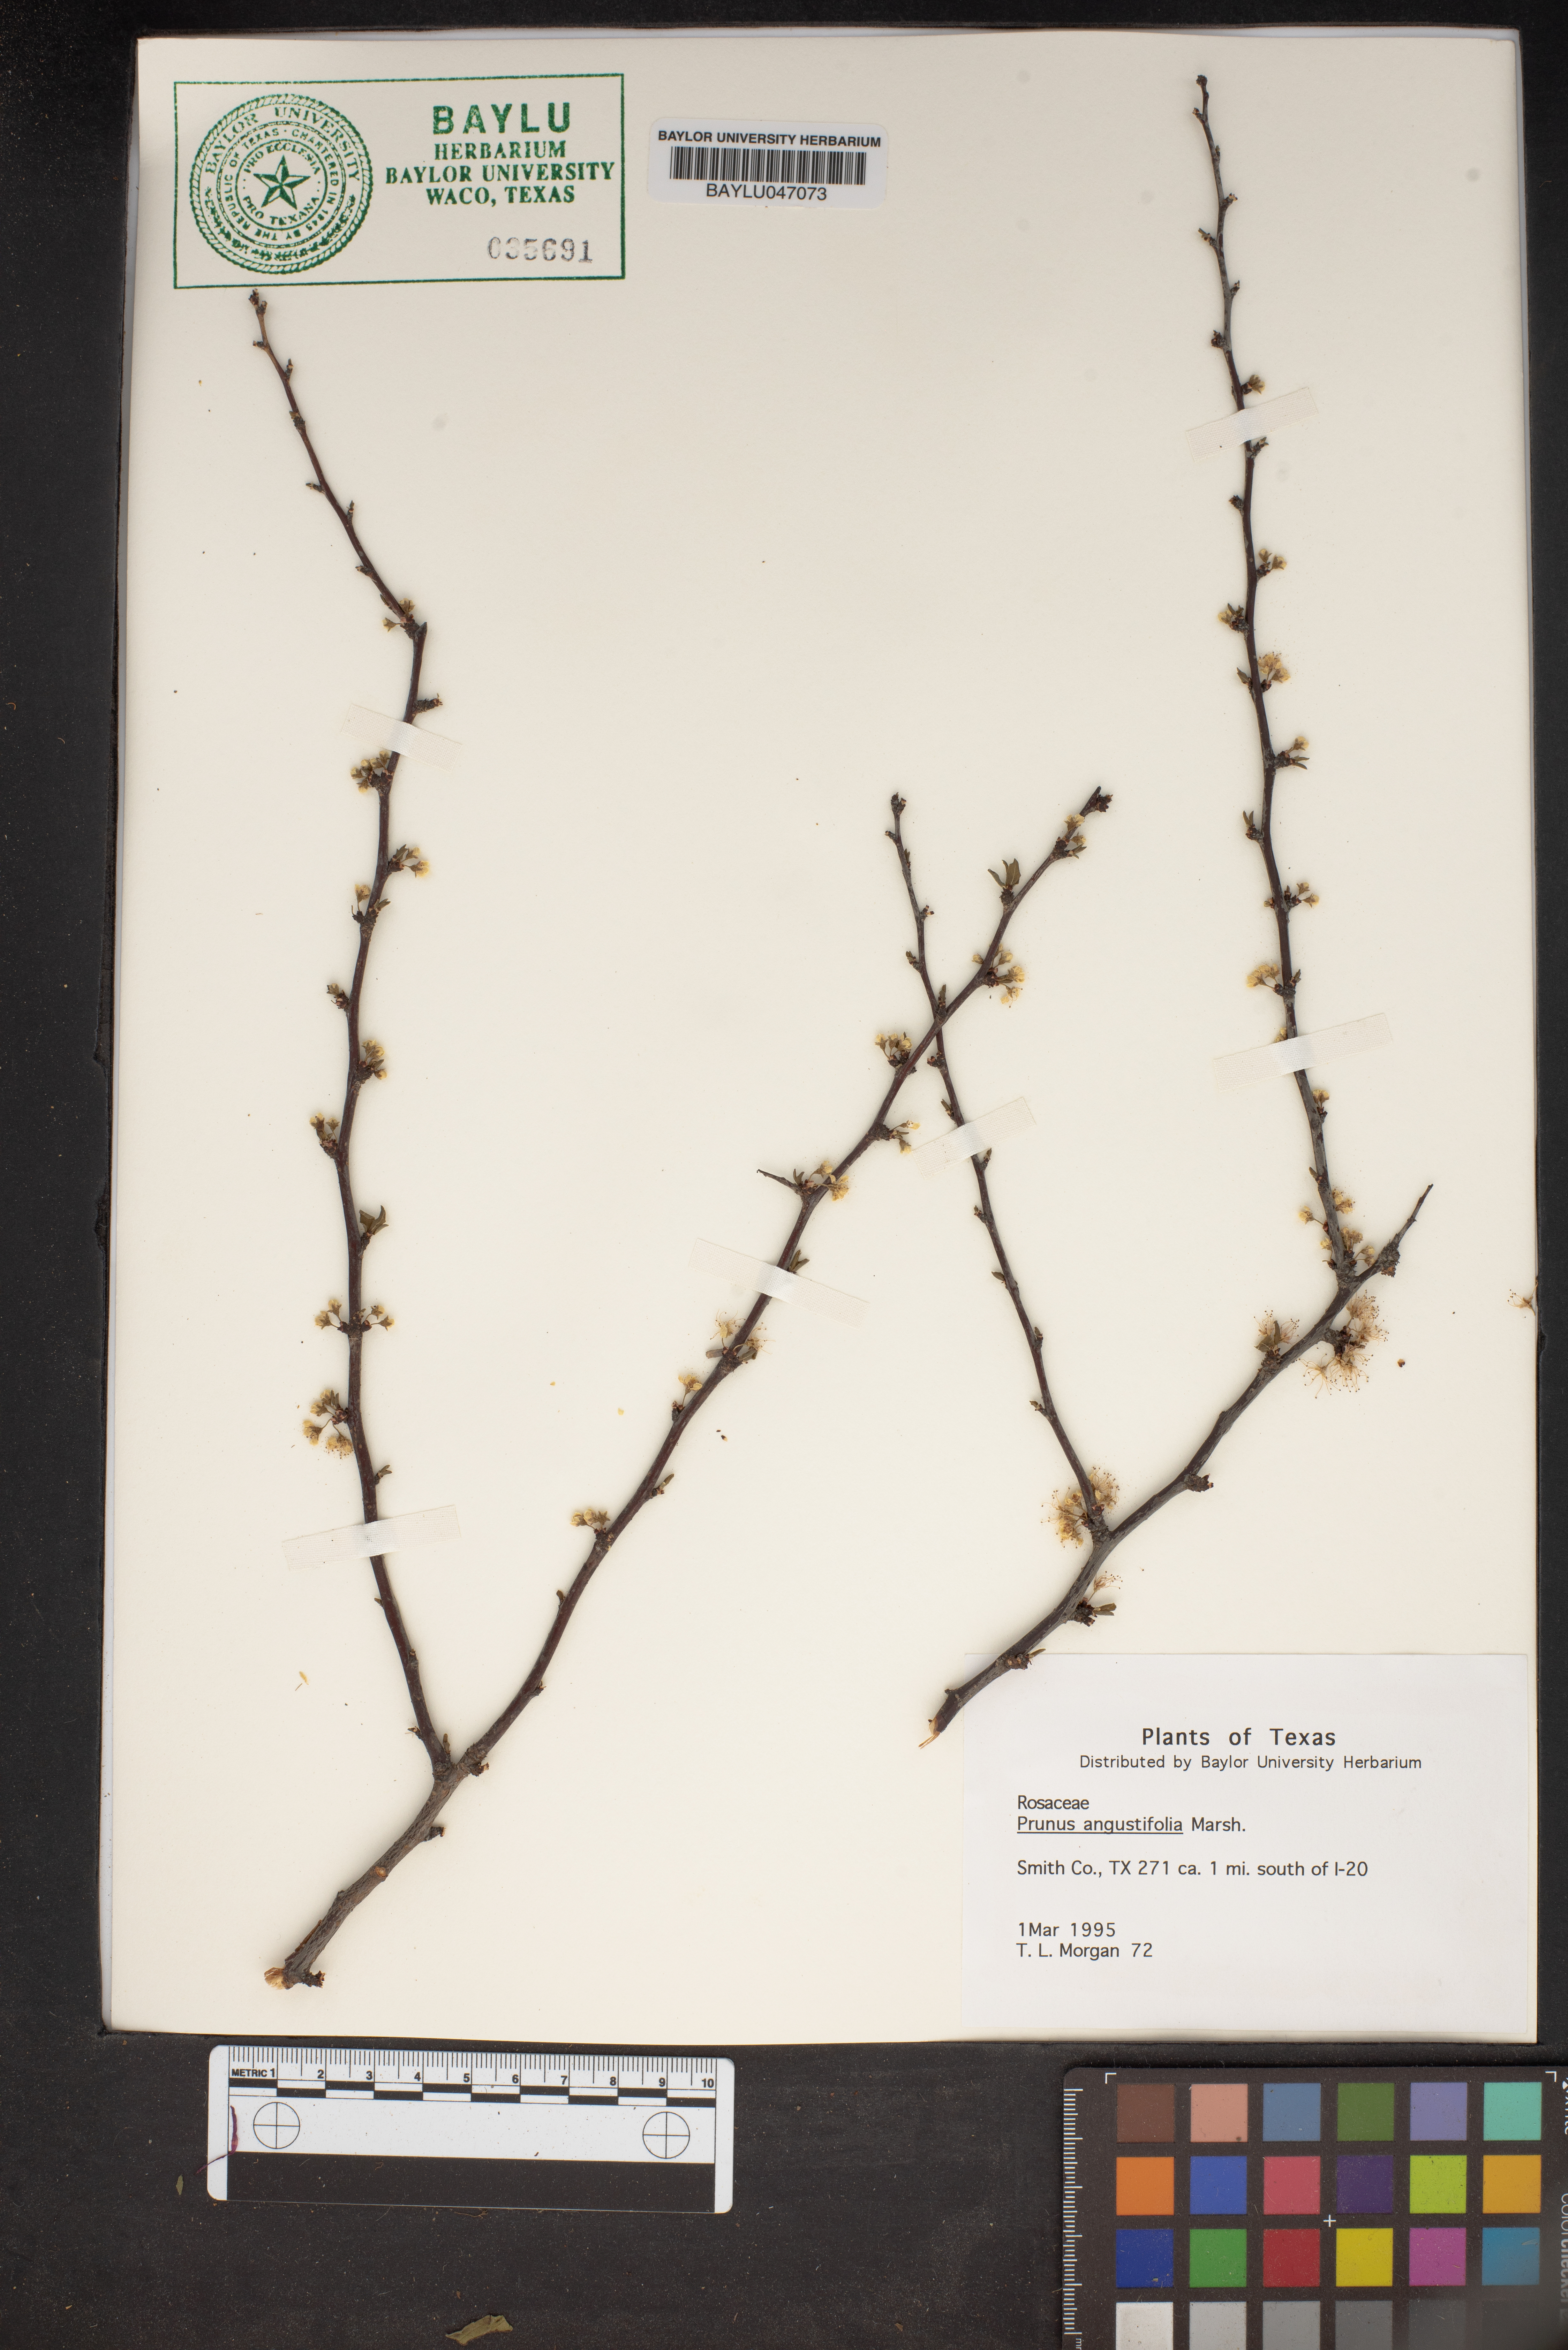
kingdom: Plantae
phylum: Tracheophyta
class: Magnoliopsida
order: Rosales
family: Rosaceae
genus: Prunus
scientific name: Prunus angustifolia
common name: Cherokee plum
